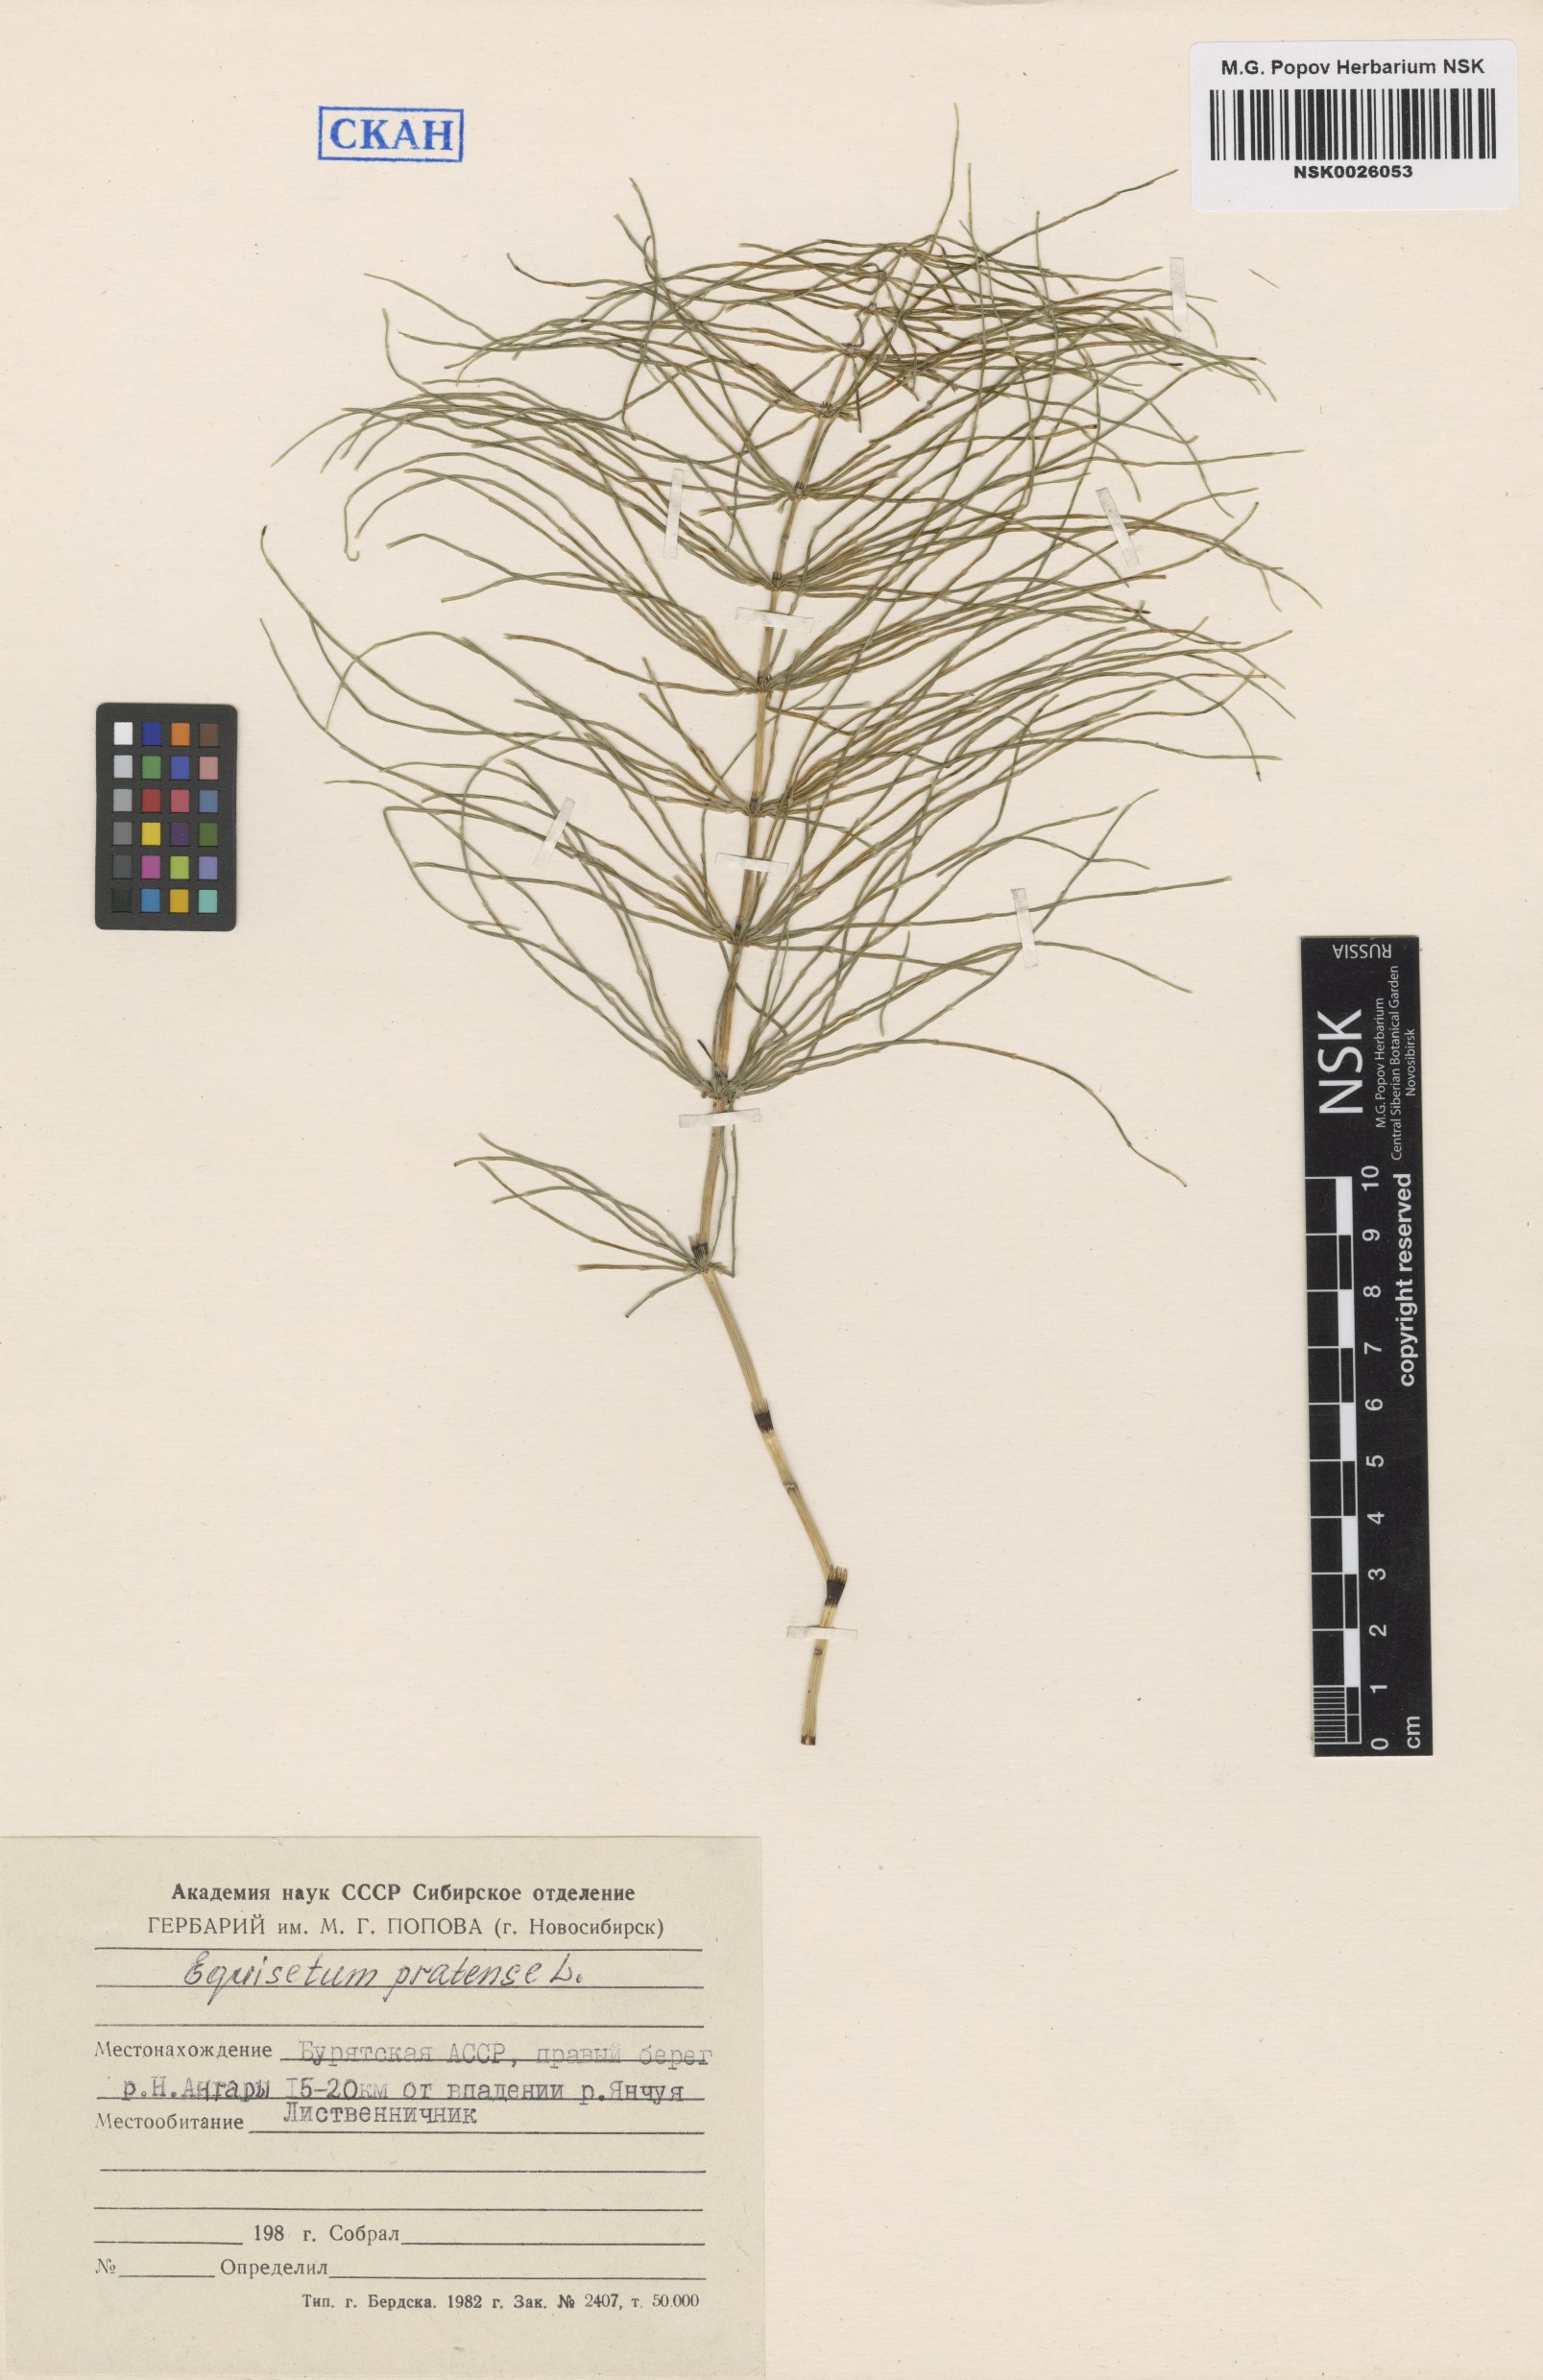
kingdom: Plantae
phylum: Tracheophyta
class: Polypodiopsida
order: Equisetales
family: Equisetaceae
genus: Equisetum
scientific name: Equisetum pratense
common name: Meadow horsetail
